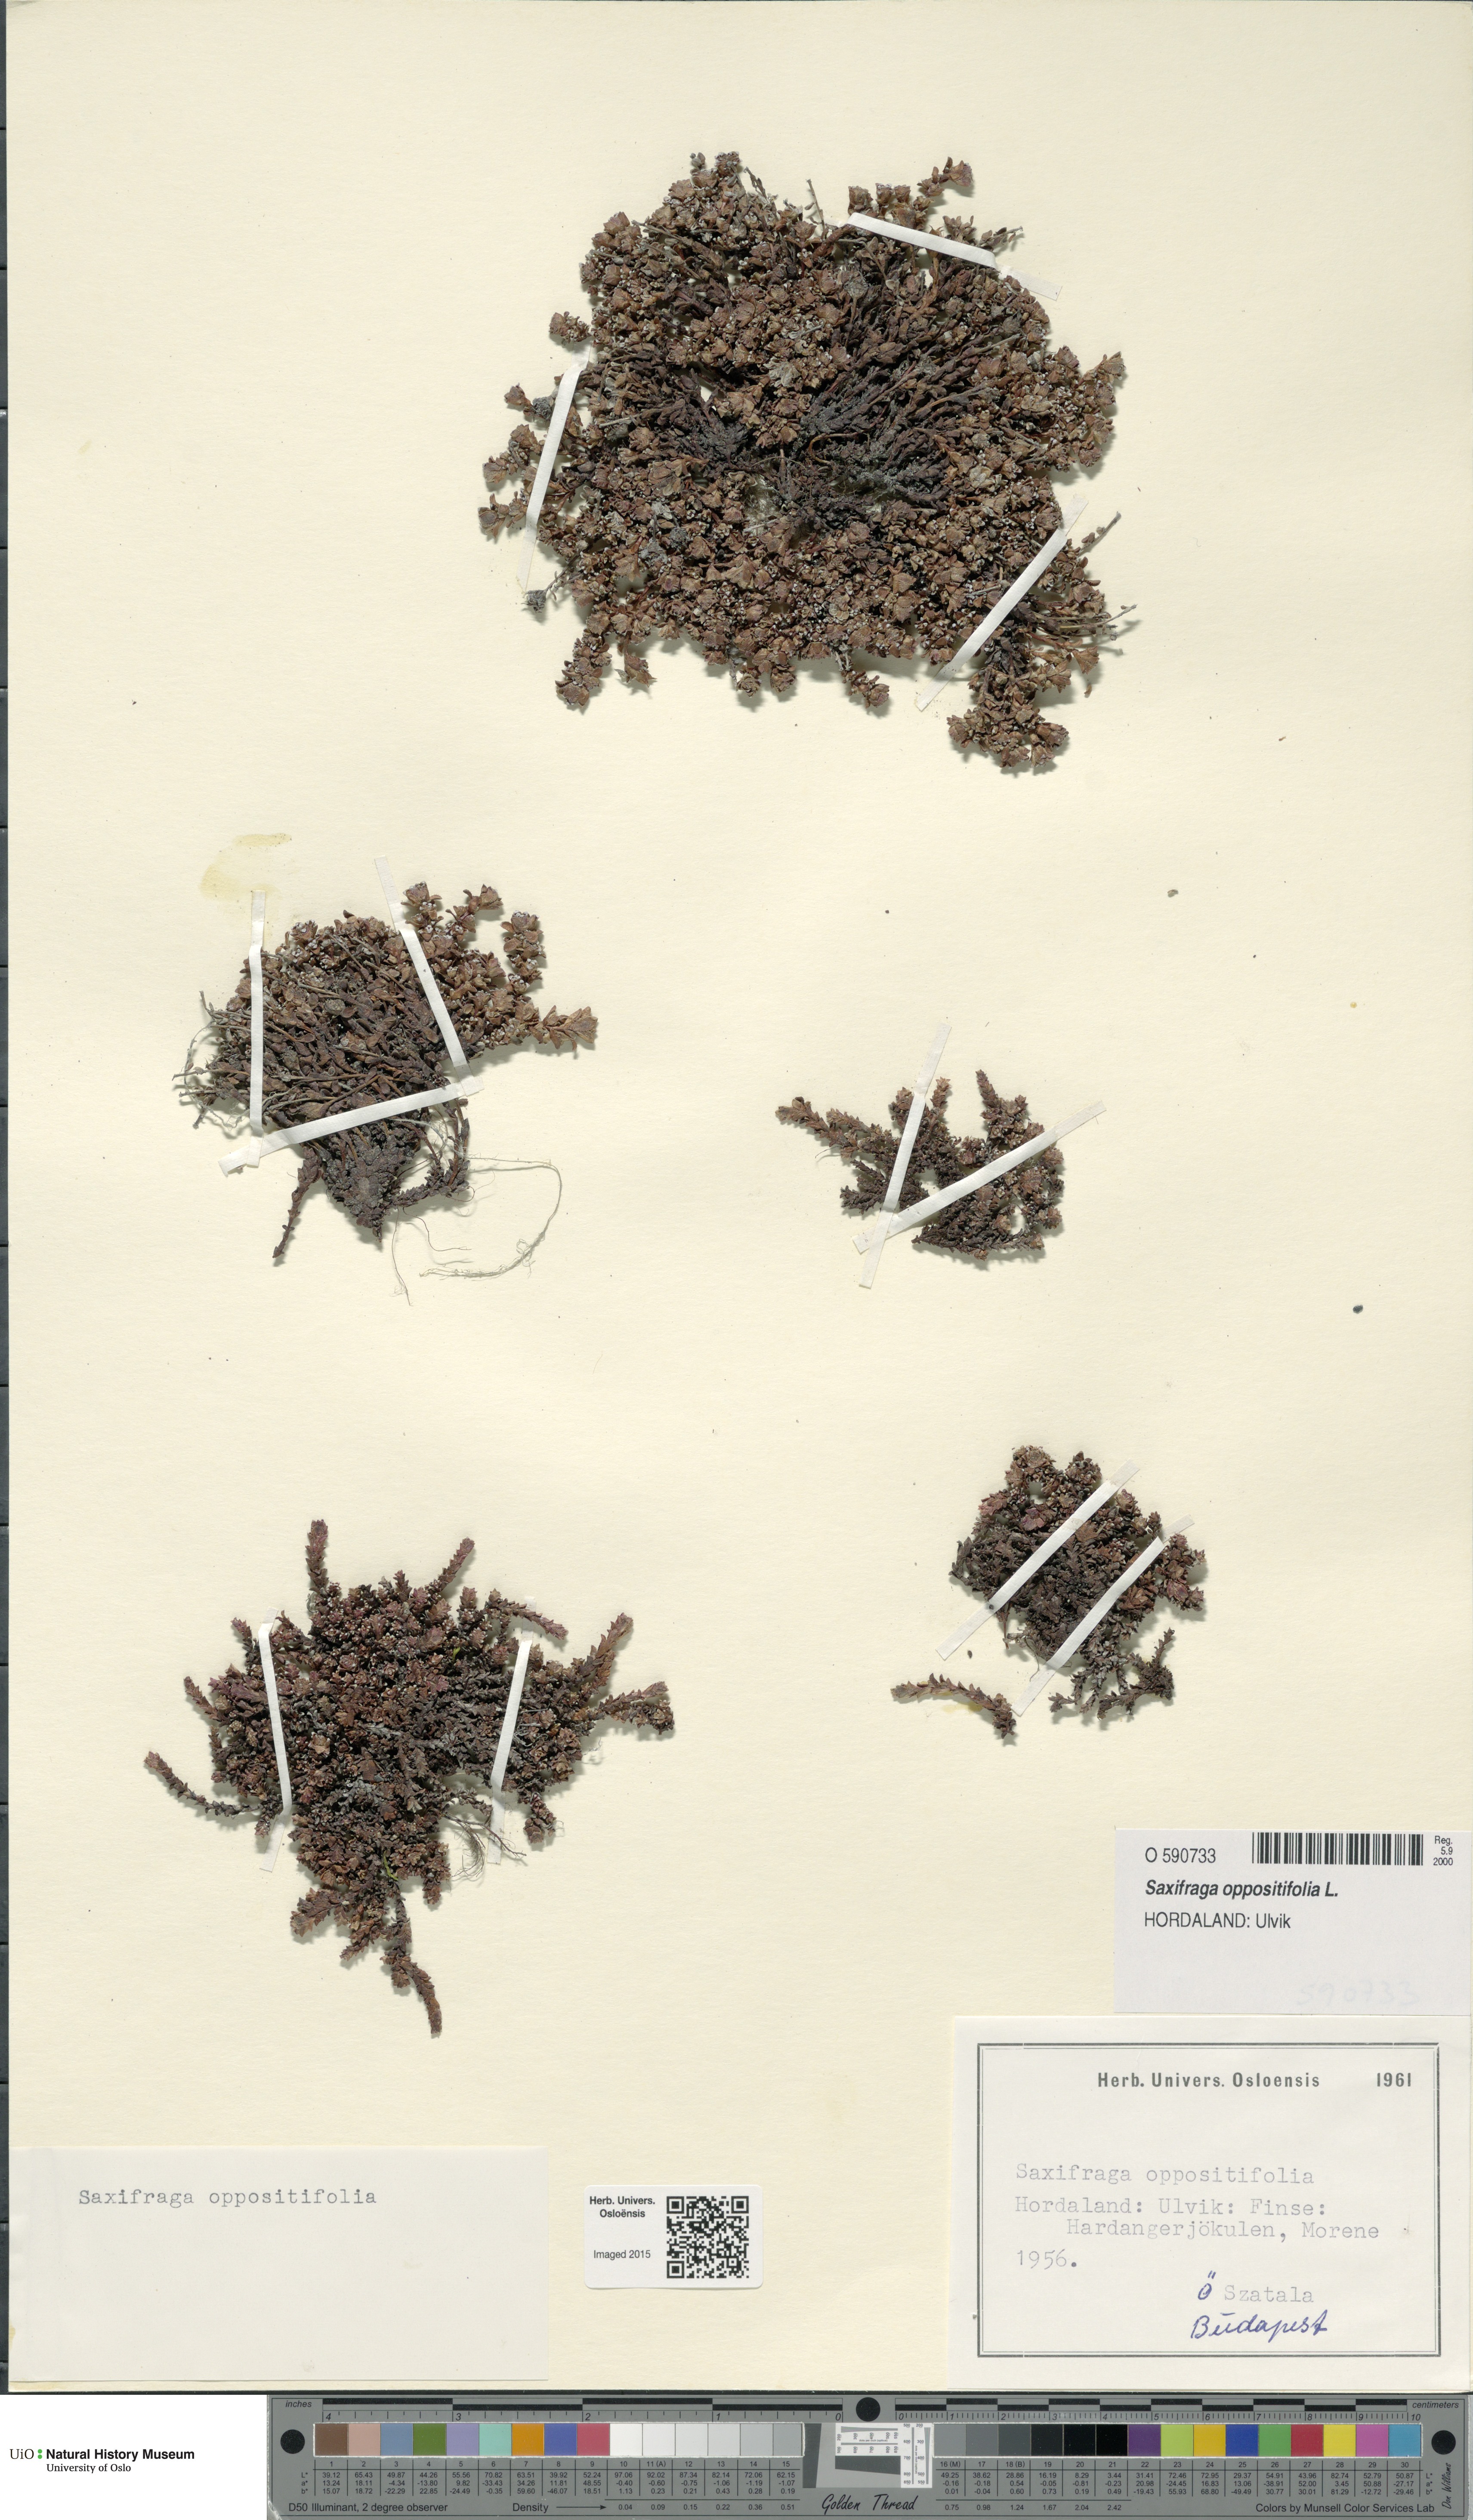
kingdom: Plantae
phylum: Tracheophyta
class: Magnoliopsida
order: Saxifragales
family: Saxifragaceae
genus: Saxifraga
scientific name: Saxifraga oppositifolia
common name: Purple saxifrage
